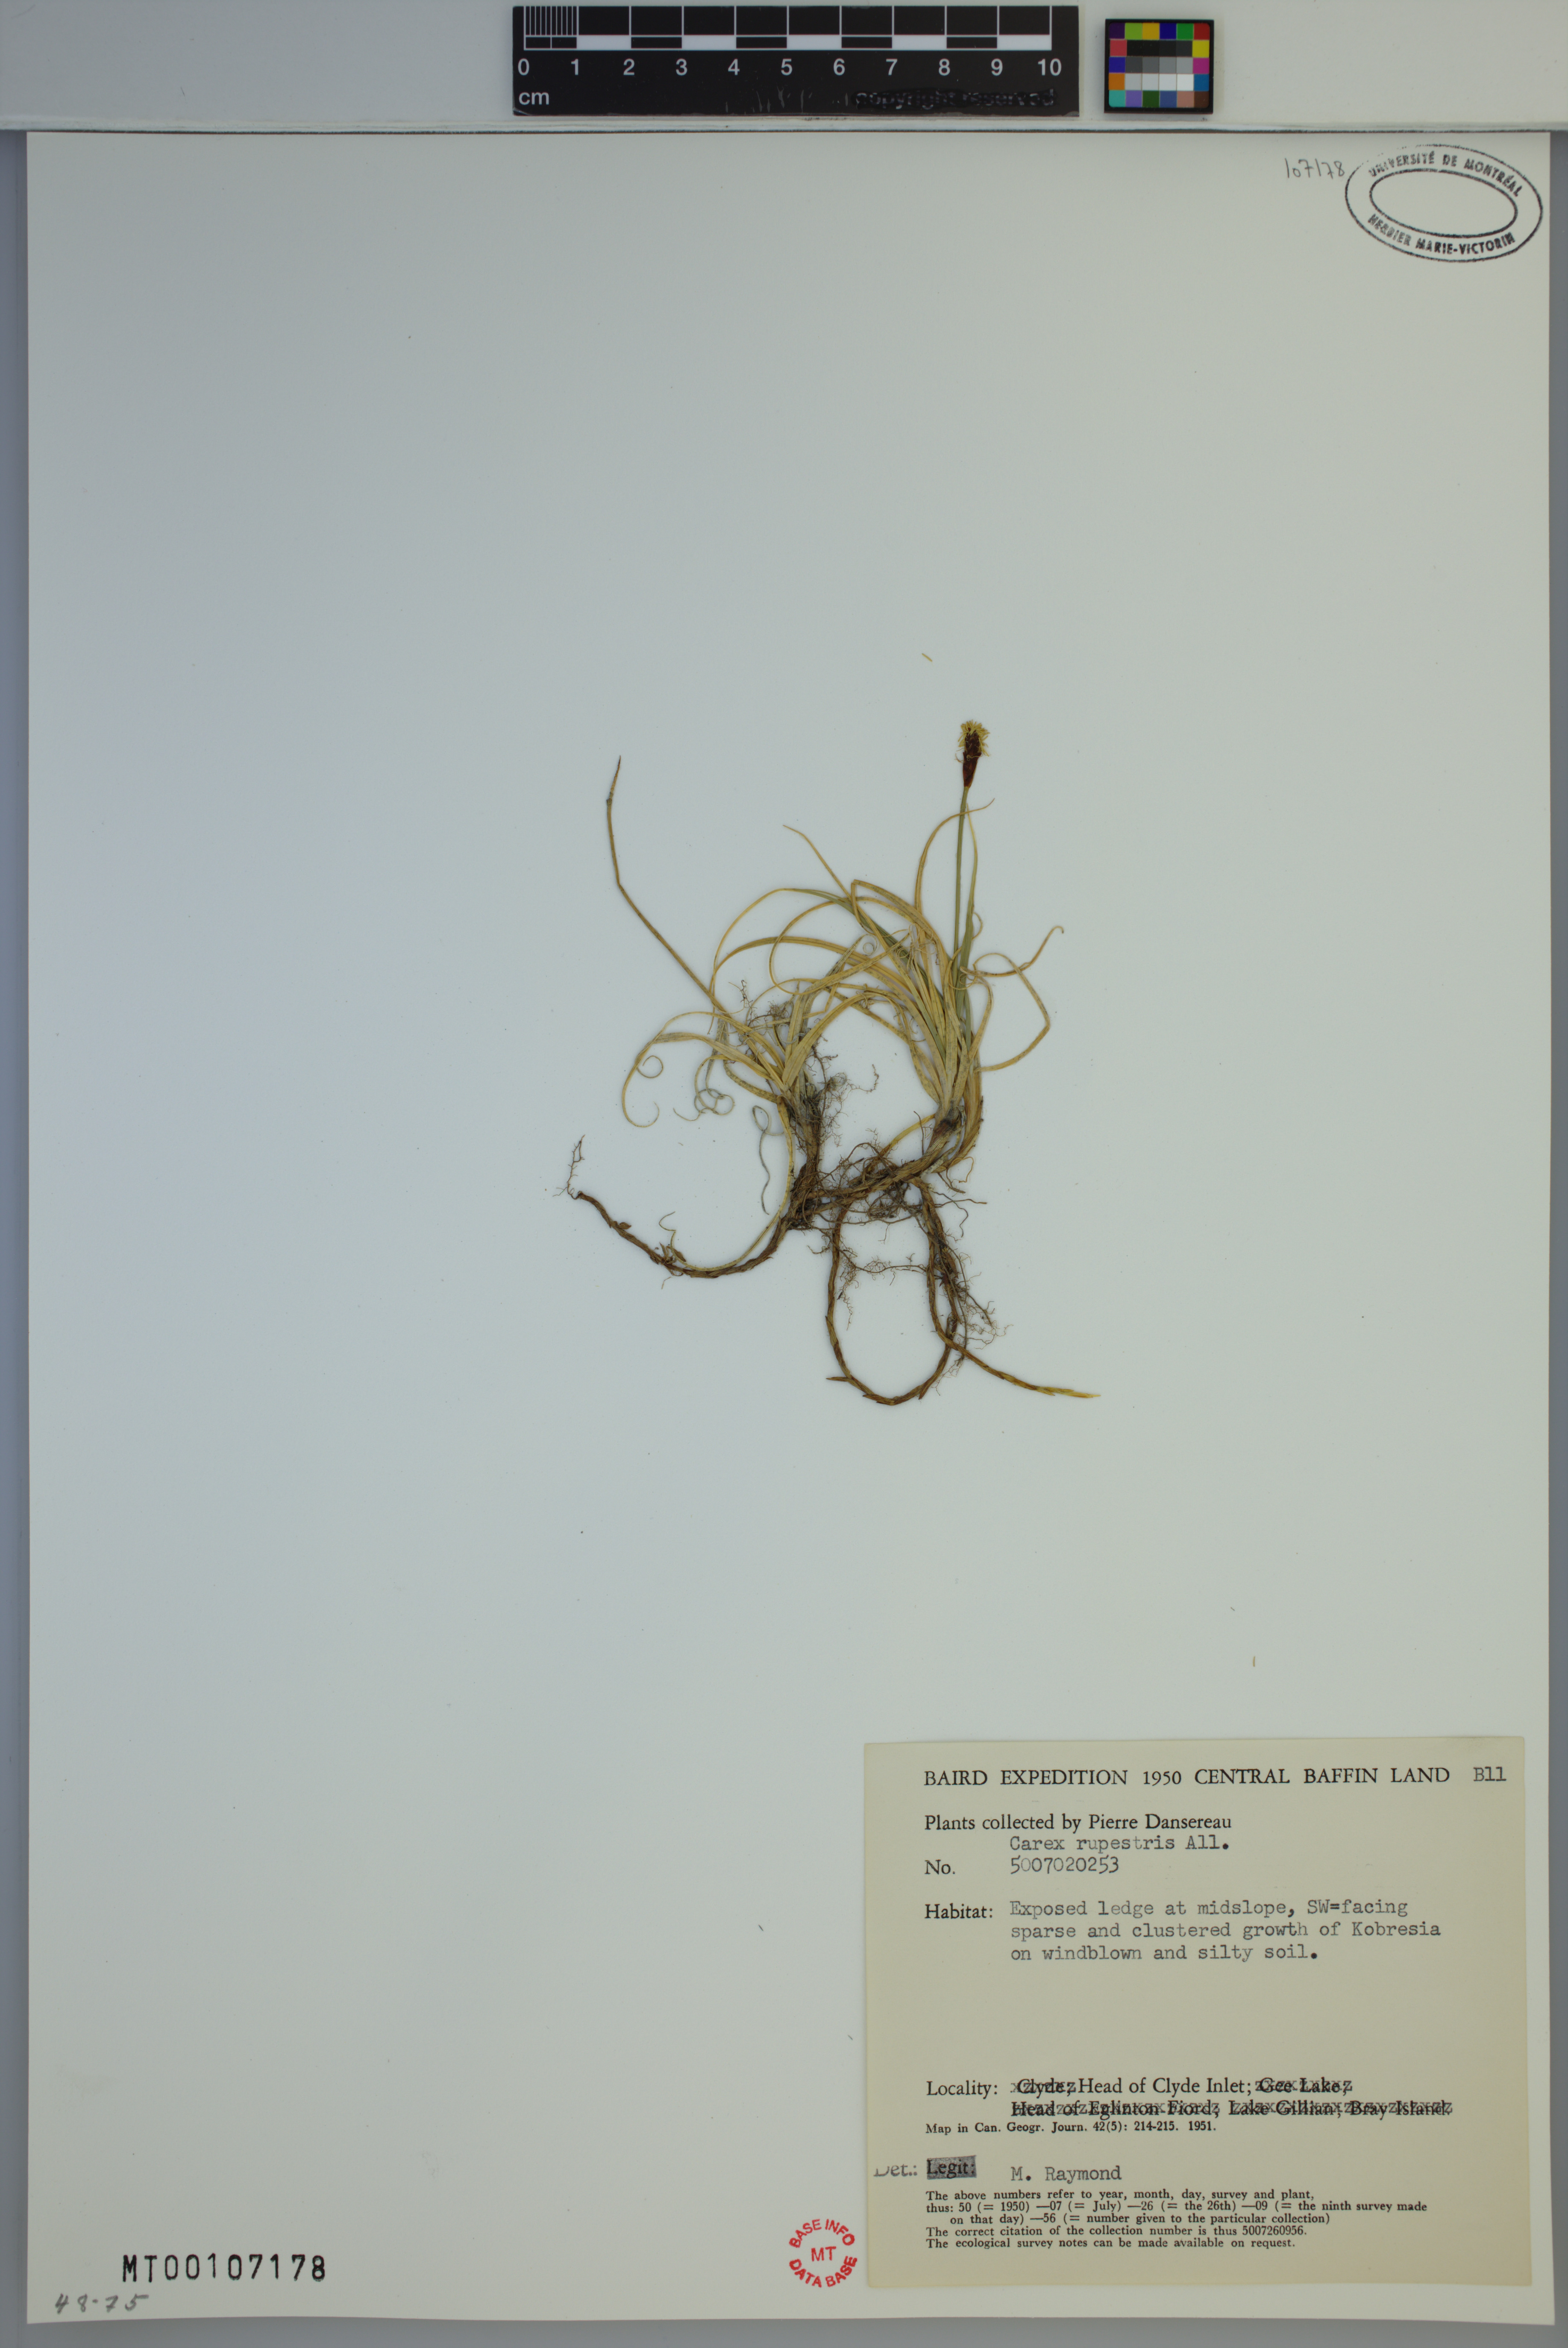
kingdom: Plantae
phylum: Tracheophyta
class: Liliopsida
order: Poales
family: Cyperaceae
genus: Carex
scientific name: Carex rupestris
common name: Rock sedge
